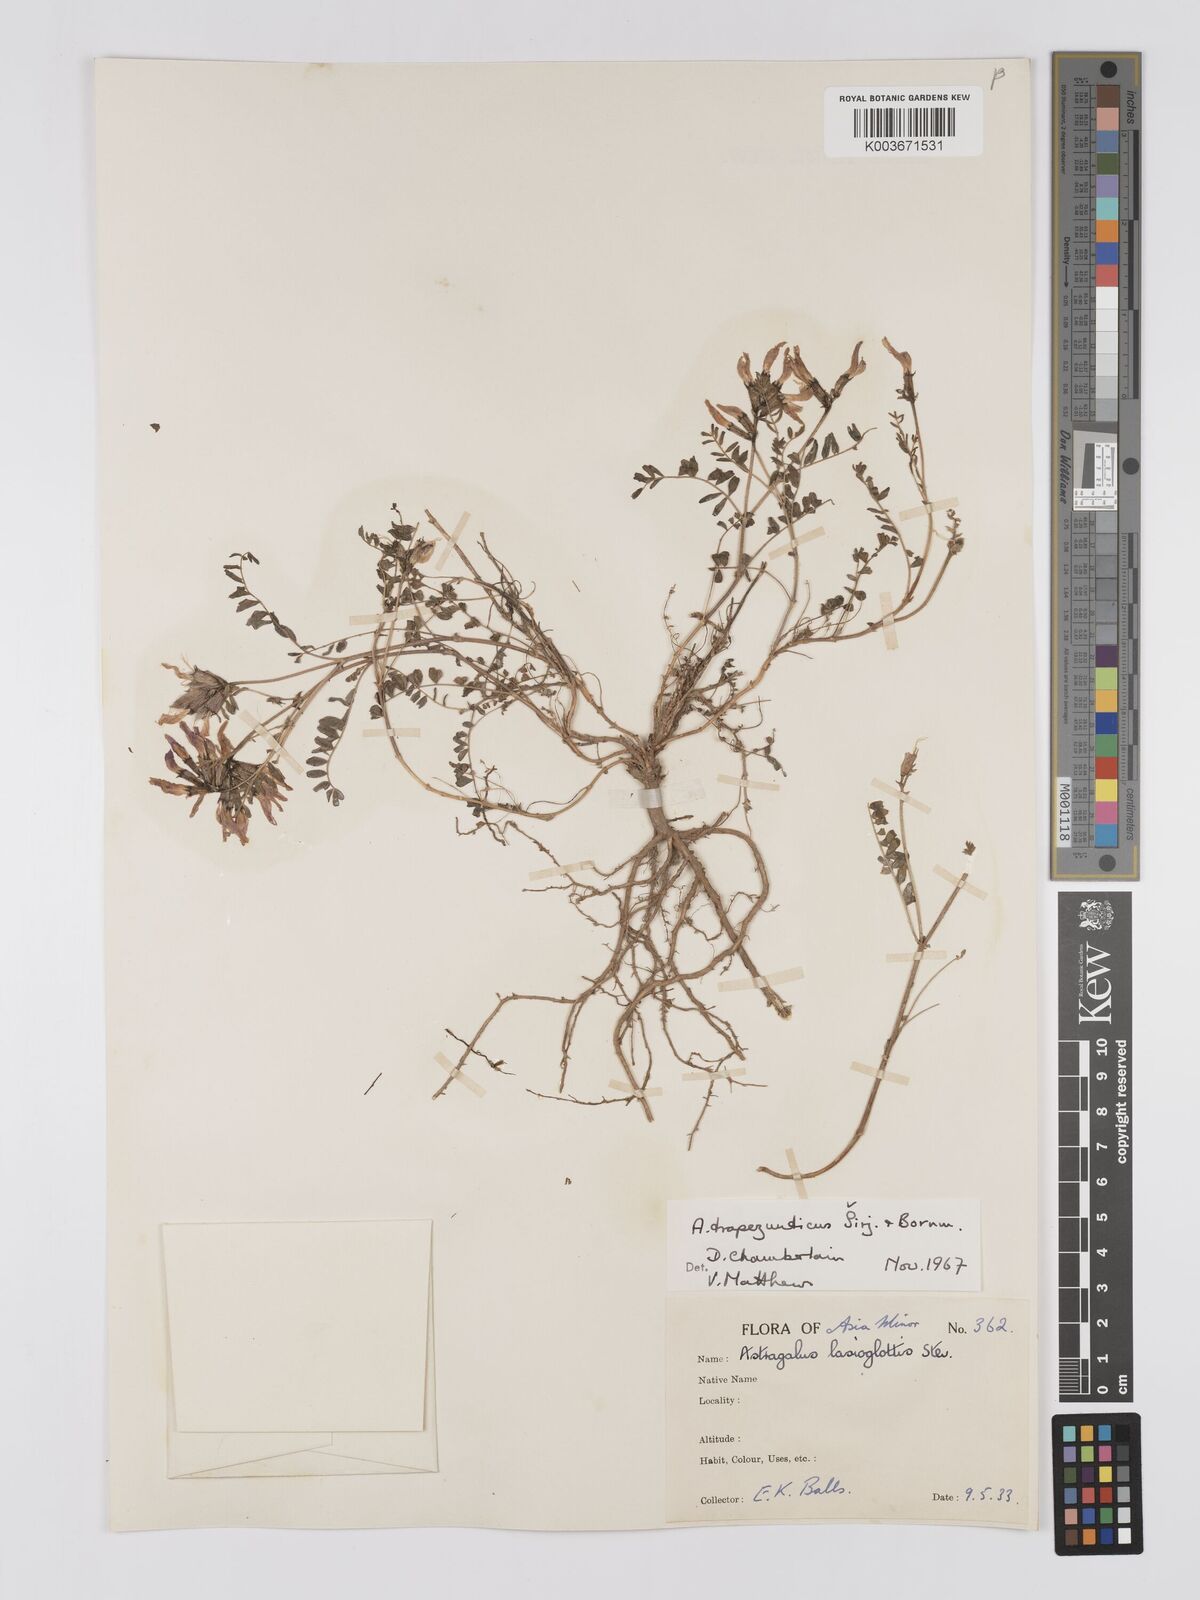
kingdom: Plantae
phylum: Tracheophyta
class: Magnoliopsida
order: Fabales
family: Fabaceae
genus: Astragalus
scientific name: Astragalus viridissimus
